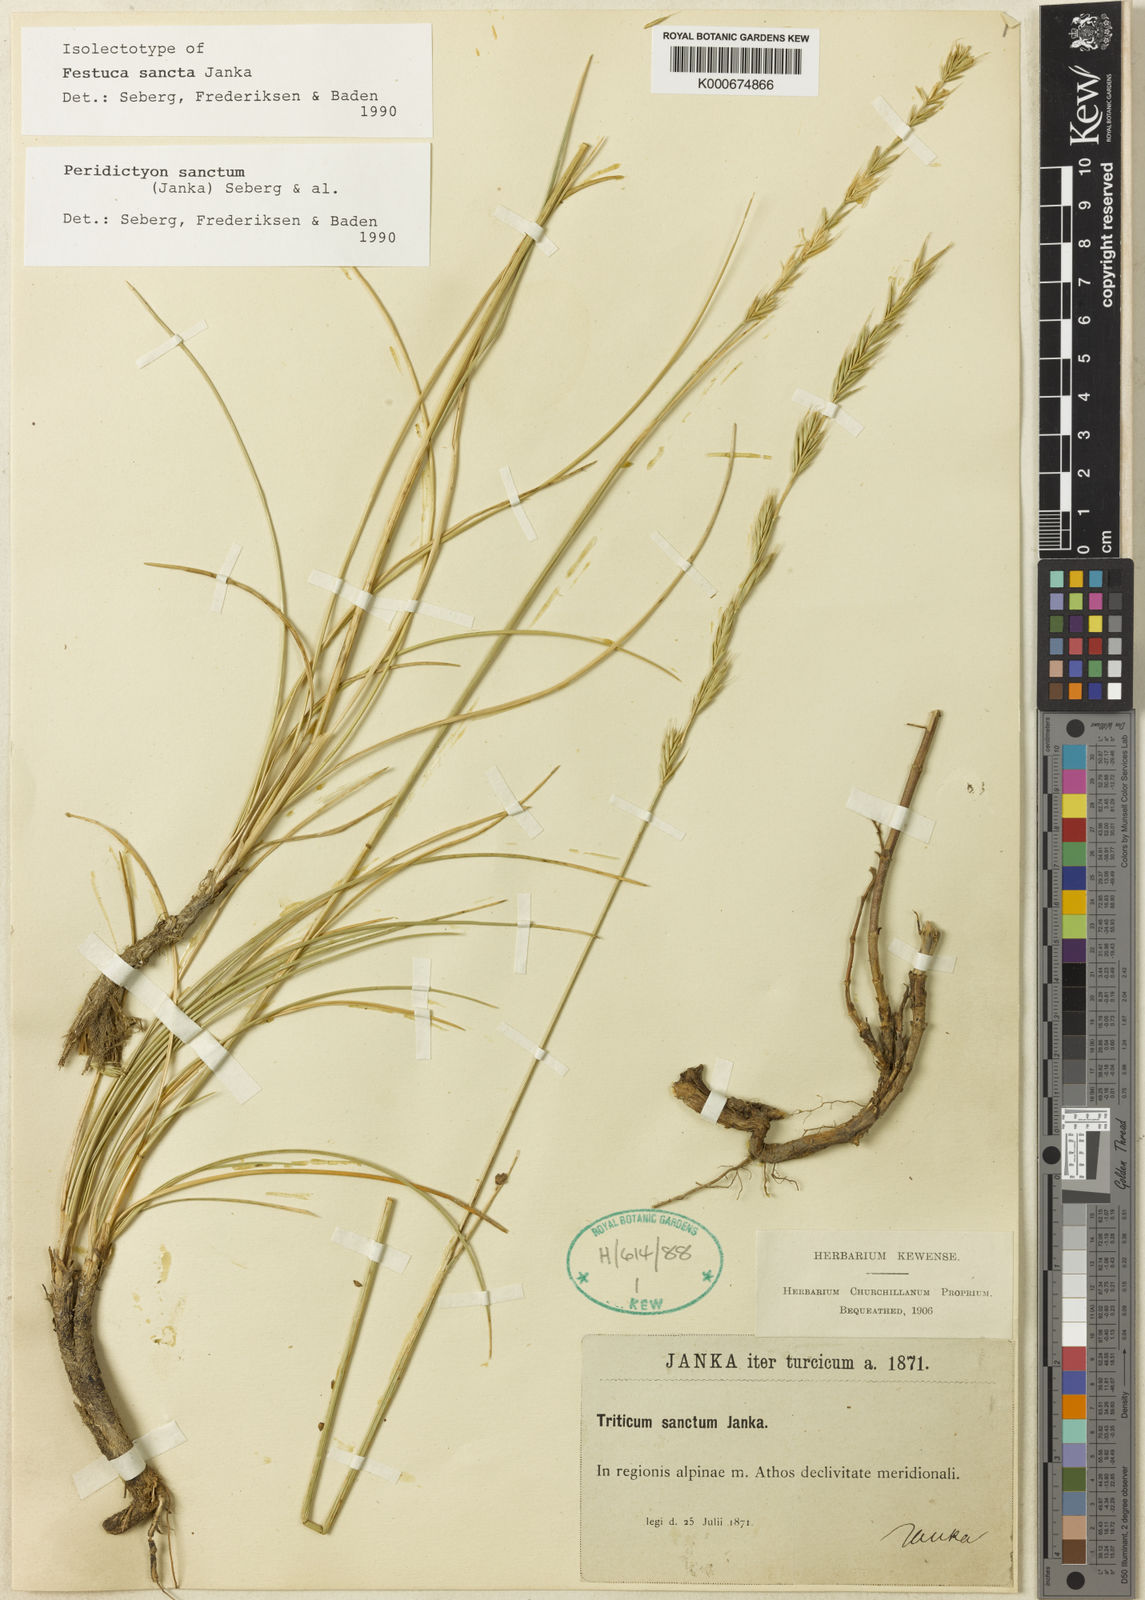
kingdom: Plantae
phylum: Tracheophyta
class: Liliopsida
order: Poales
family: Poaceae
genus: Elymus
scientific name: Elymus
